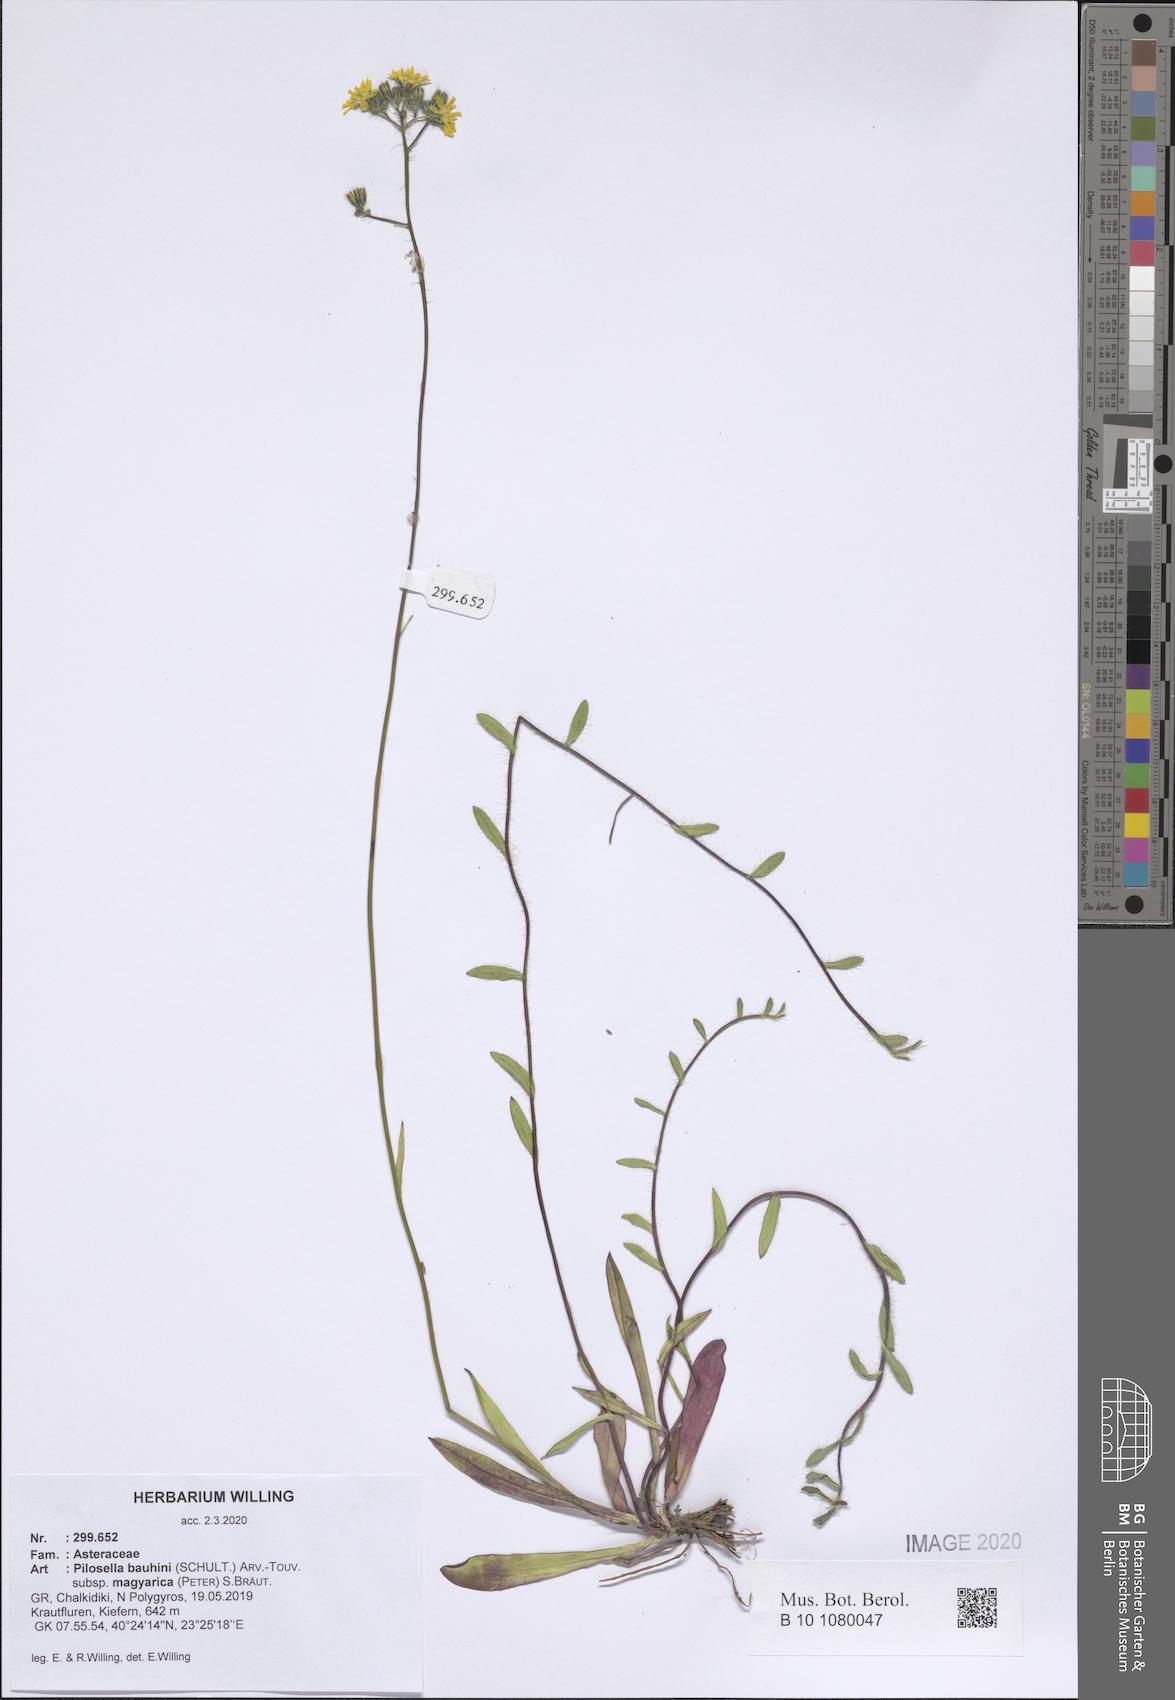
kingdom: Plantae
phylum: Tracheophyta
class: Magnoliopsida
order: Asterales
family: Asteraceae
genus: Pilosella
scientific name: Pilosella bauhini
